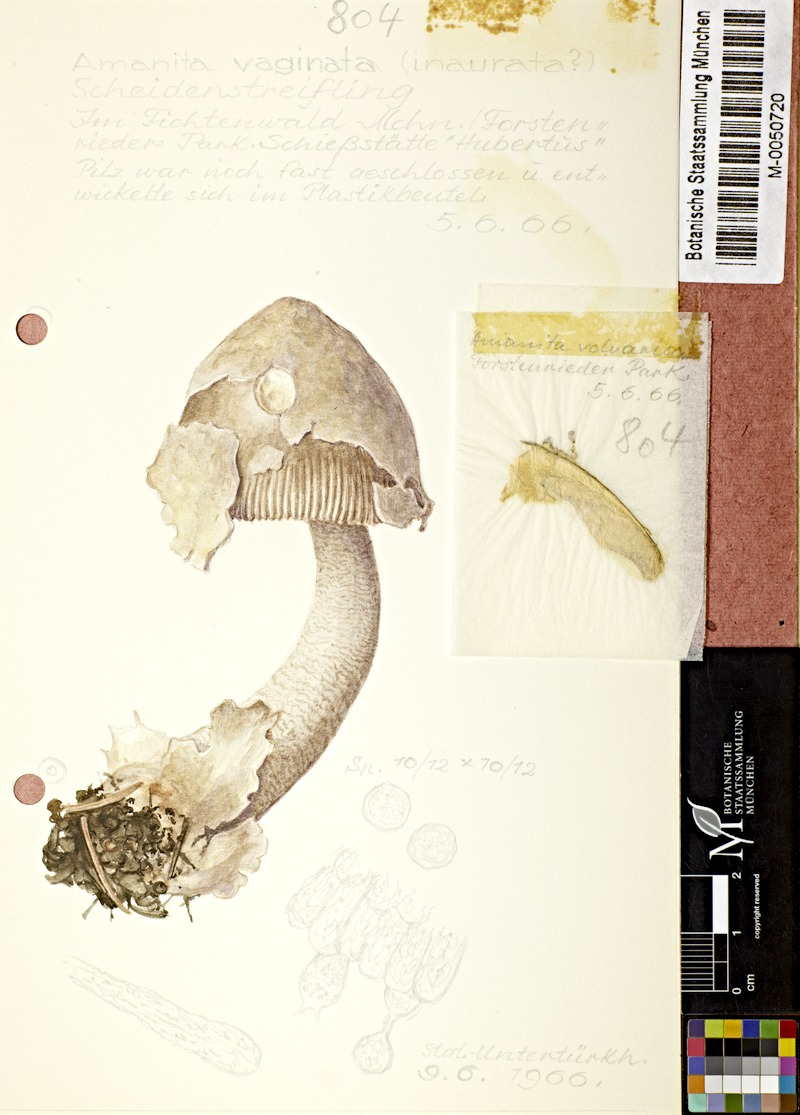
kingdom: Fungi
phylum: Basidiomycota
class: Agaricomycetes
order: Agaricales
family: Amanitaceae
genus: Amanita
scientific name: Amanita vaginata
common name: Grisette
